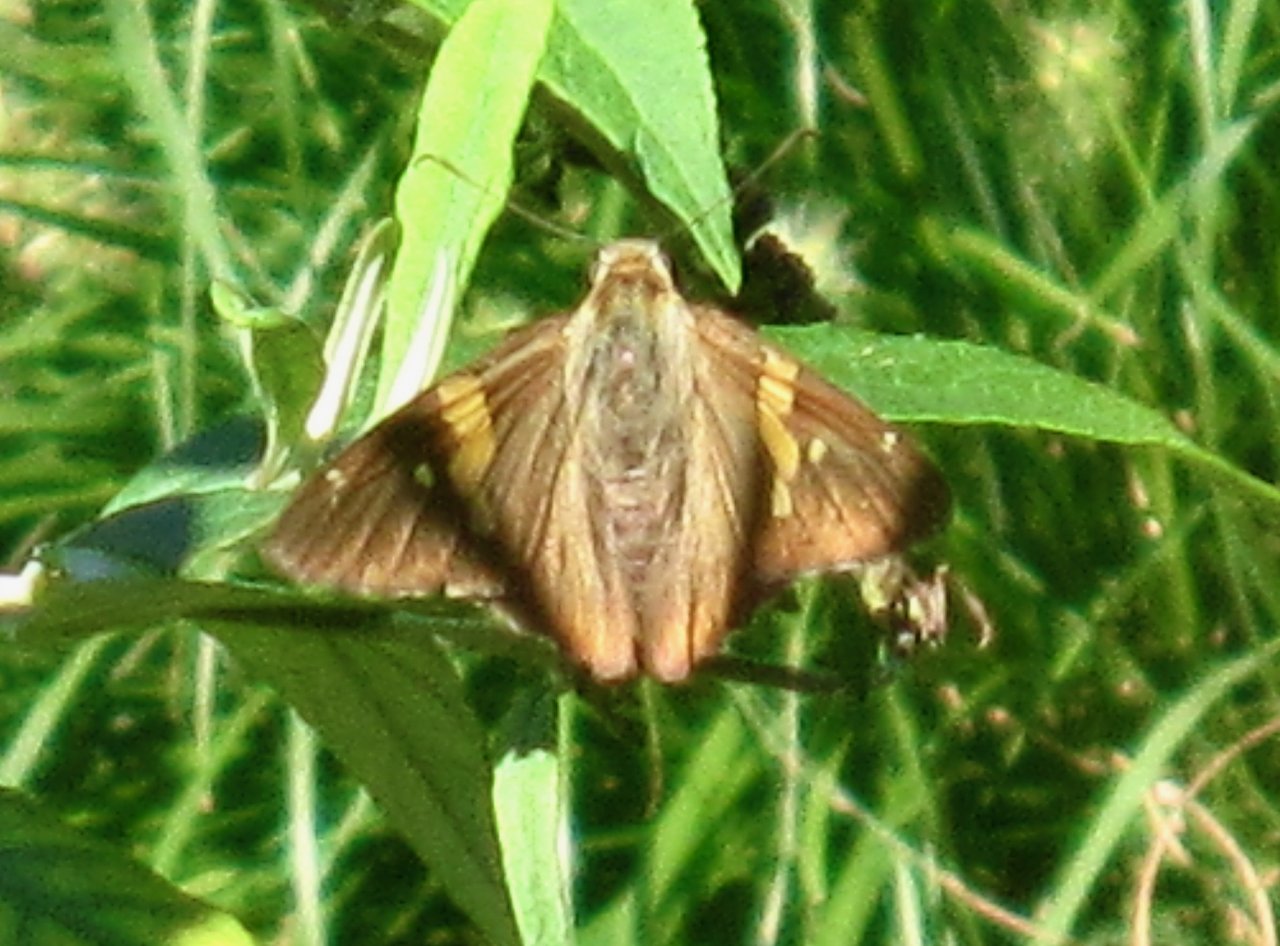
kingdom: Animalia
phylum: Arthropoda
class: Insecta
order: Lepidoptera
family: Hesperiidae
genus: Epargyreus
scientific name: Epargyreus clarus
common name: Silver-spotted Skipper
